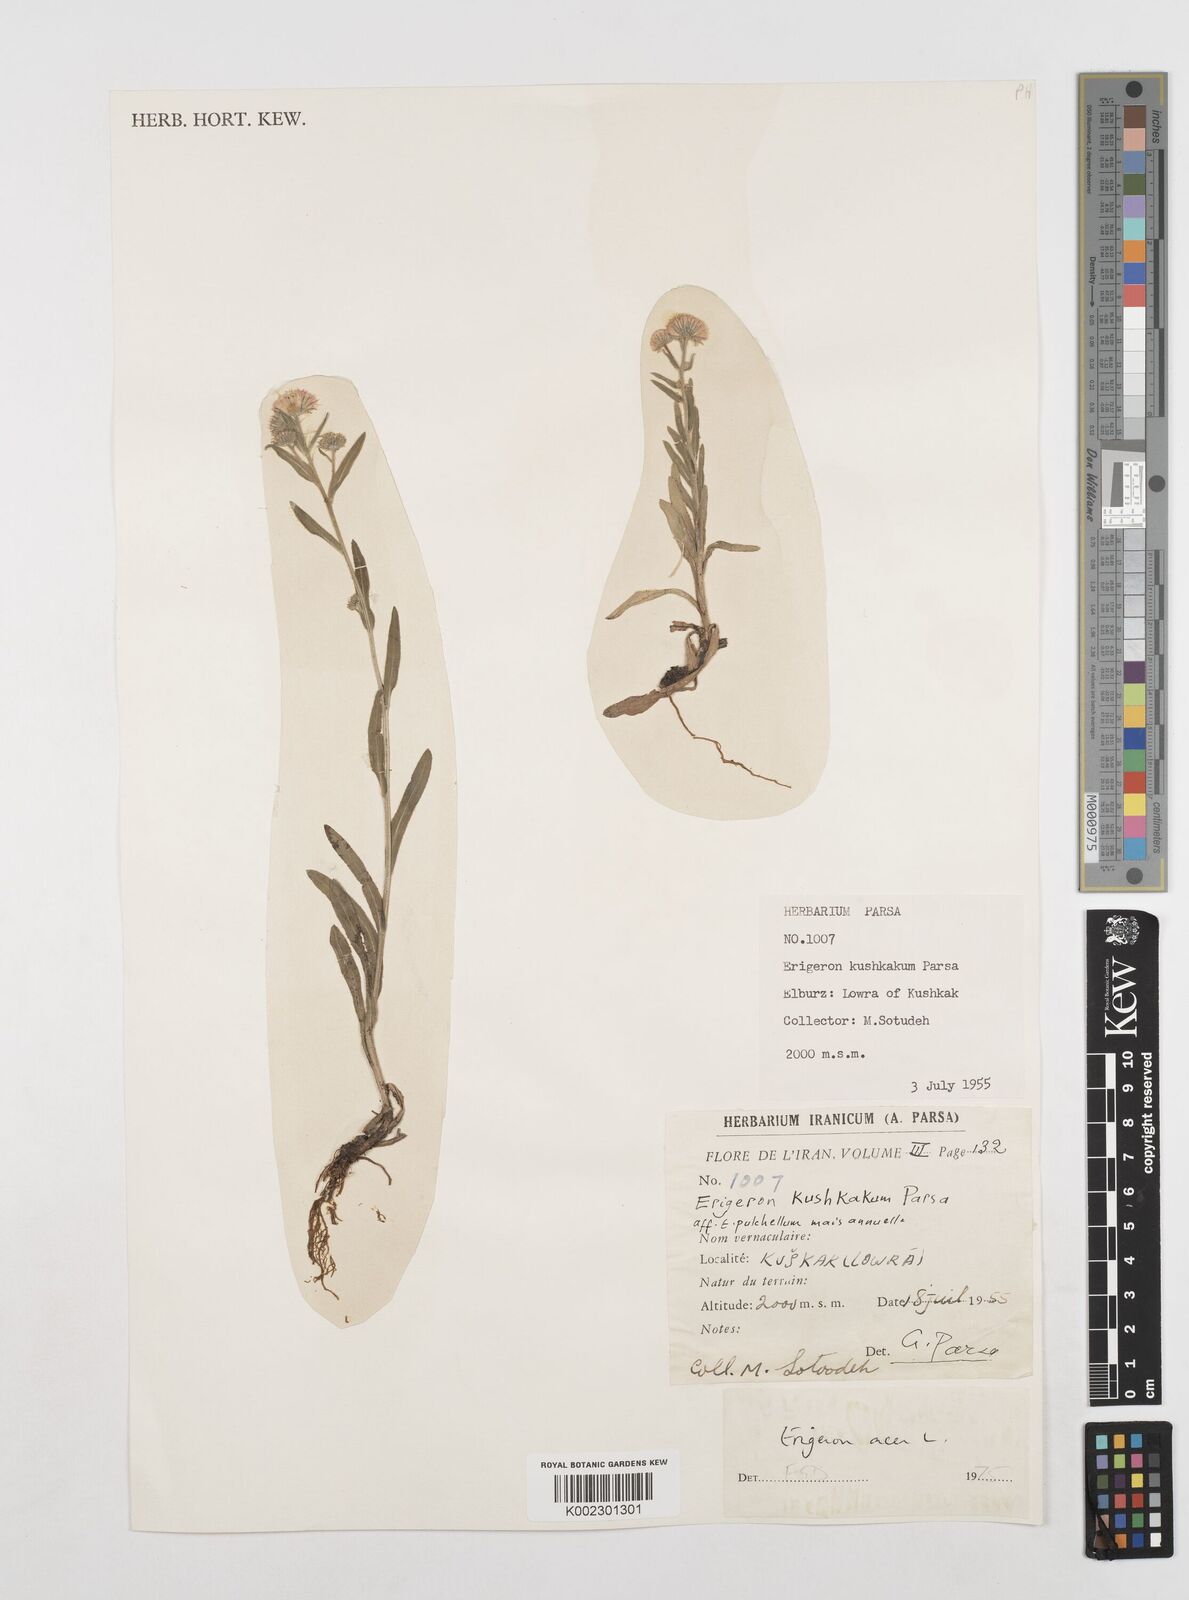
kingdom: Plantae
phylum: Tracheophyta
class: Magnoliopsida
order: Asterales
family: Asteraceae
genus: Erigeron
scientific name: Erigeron acris
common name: Blue fleabane
